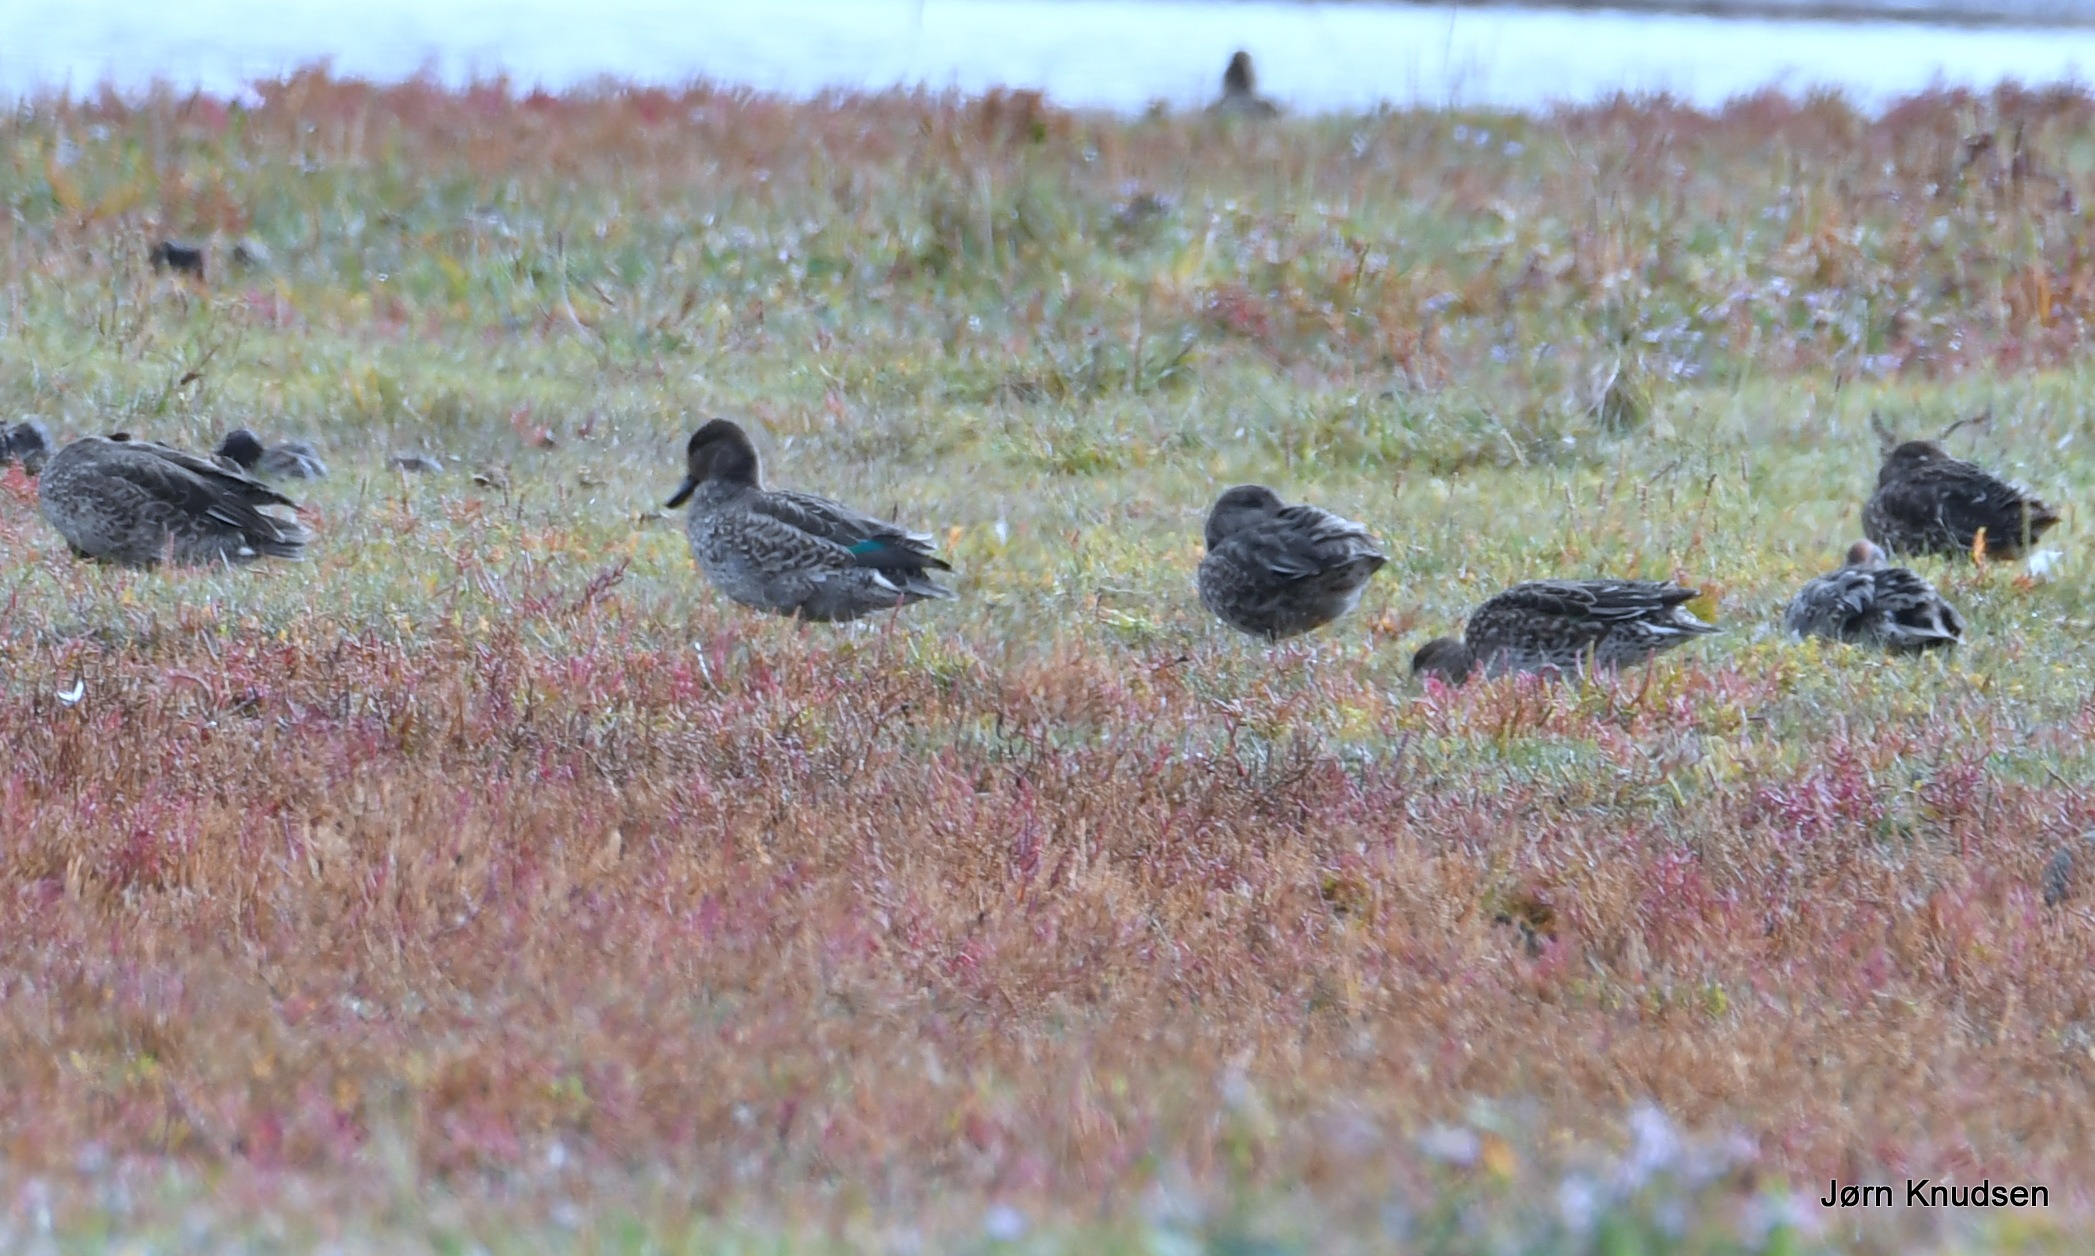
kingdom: Animalia
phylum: Chordata
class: Aves
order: Anseriformes
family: Anatidae
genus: Anas
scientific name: Anas crecca
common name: Krikand
